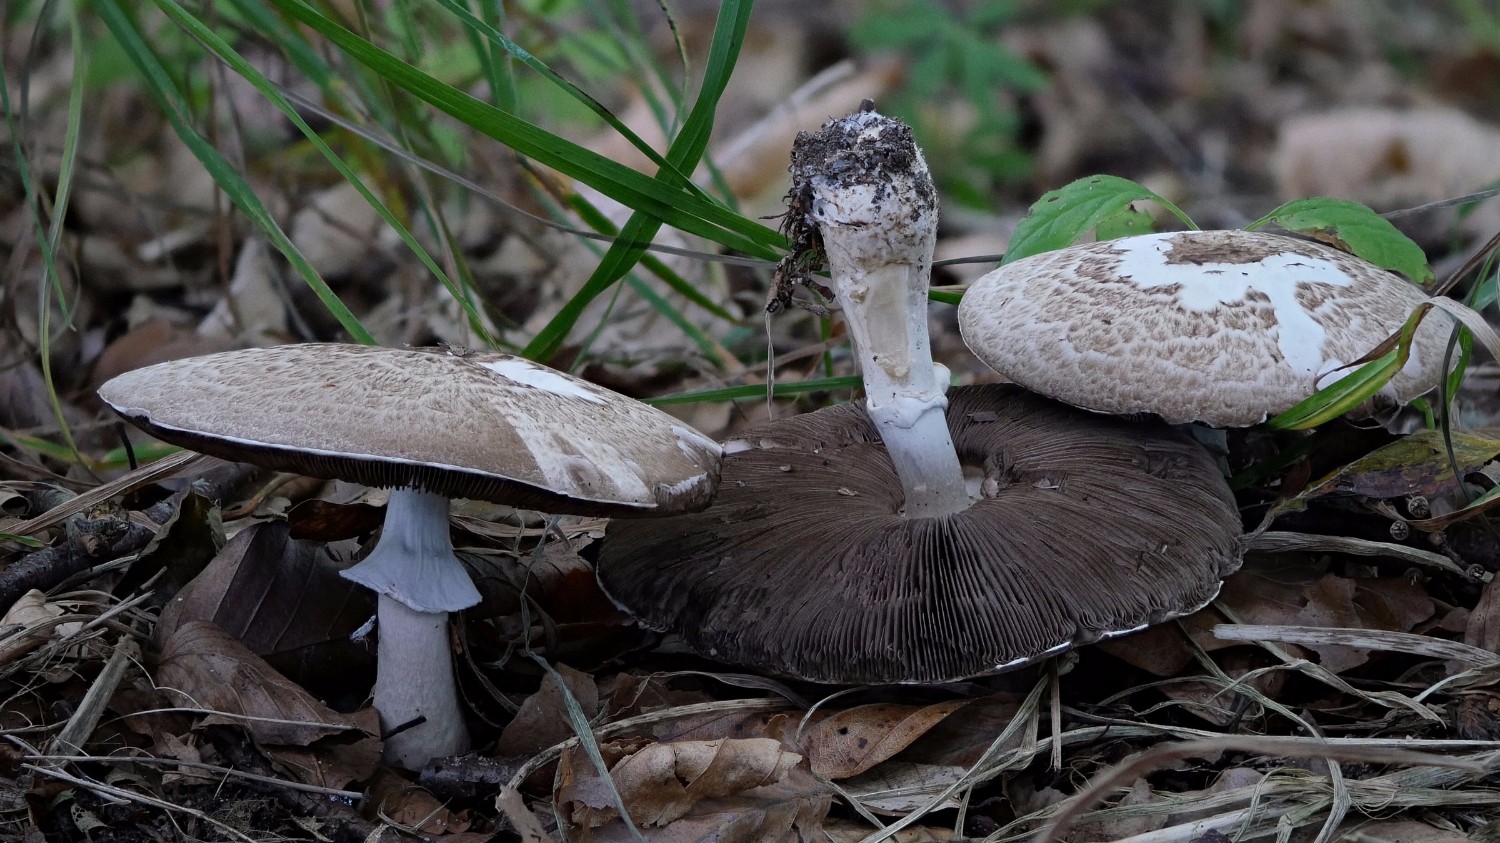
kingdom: Fungi
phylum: Basidiomycota
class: Agaricomycetes
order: Agaricales
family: Agaricaceae
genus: Agaricus
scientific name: Agaricus impudicus
